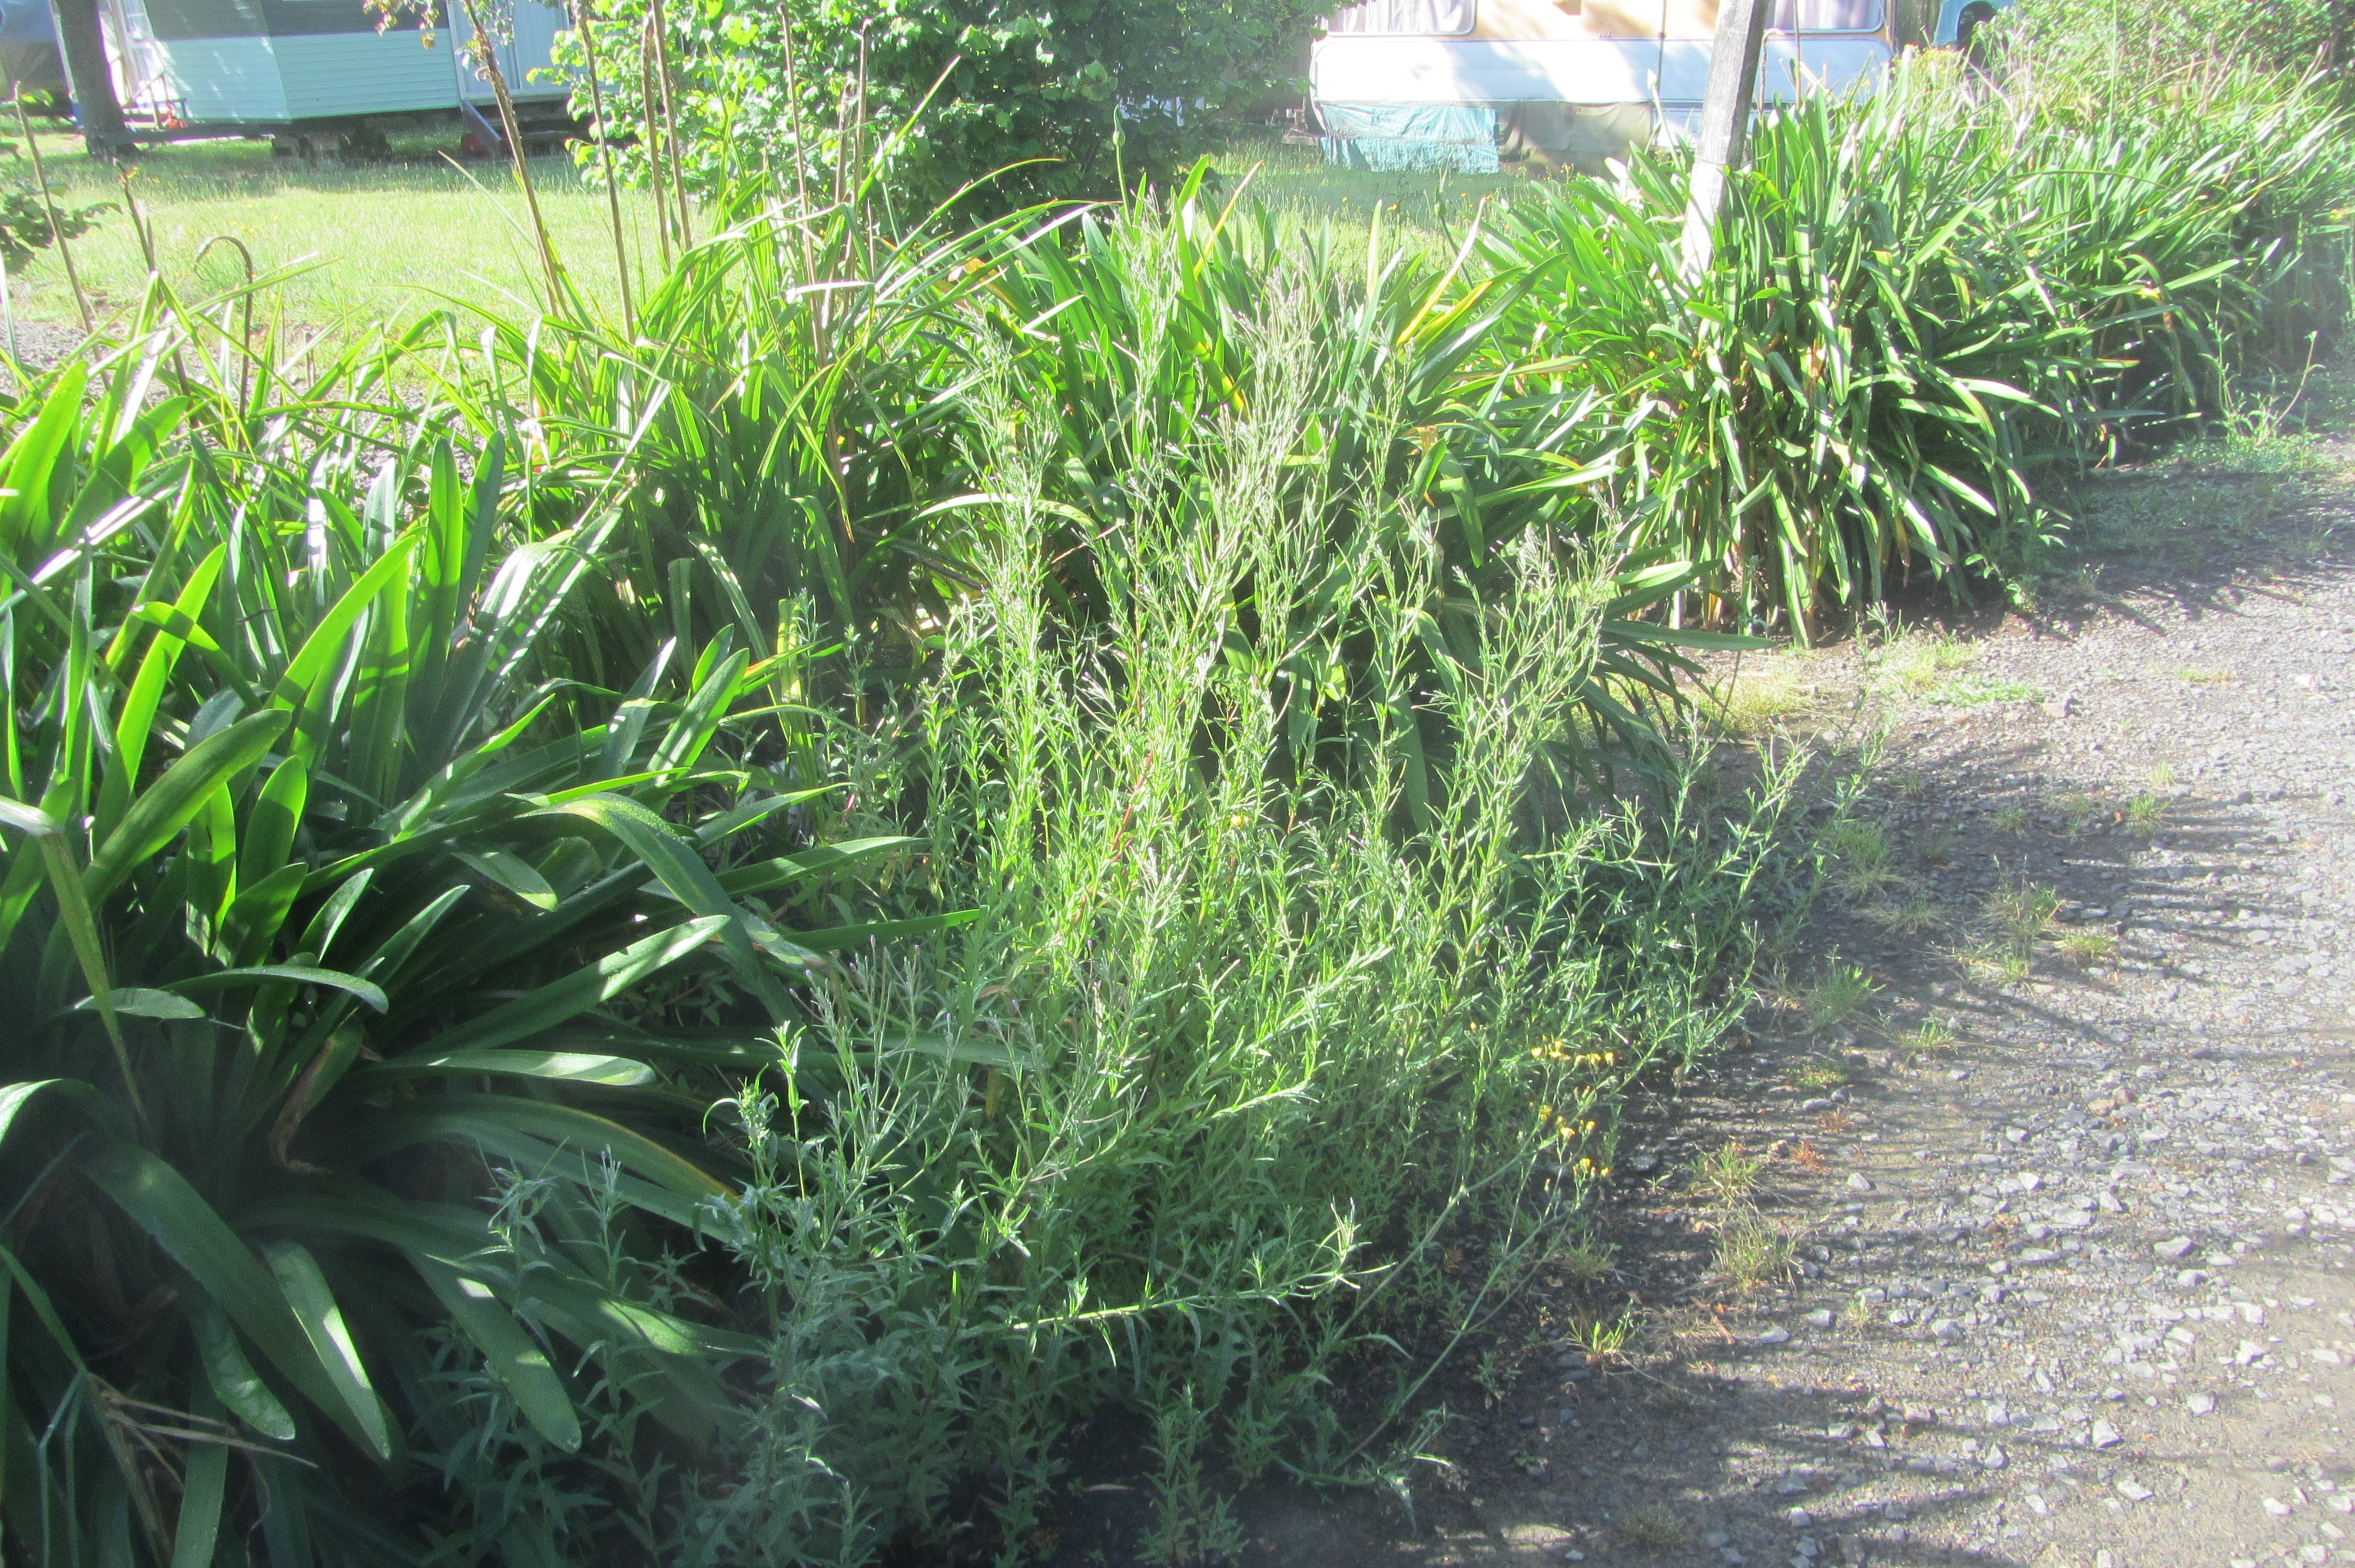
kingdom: Plantae
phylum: Tracheophyta
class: Magnoliopsida
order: Myrtales
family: Onagraceae
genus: Epilobium
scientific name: Epilobium
